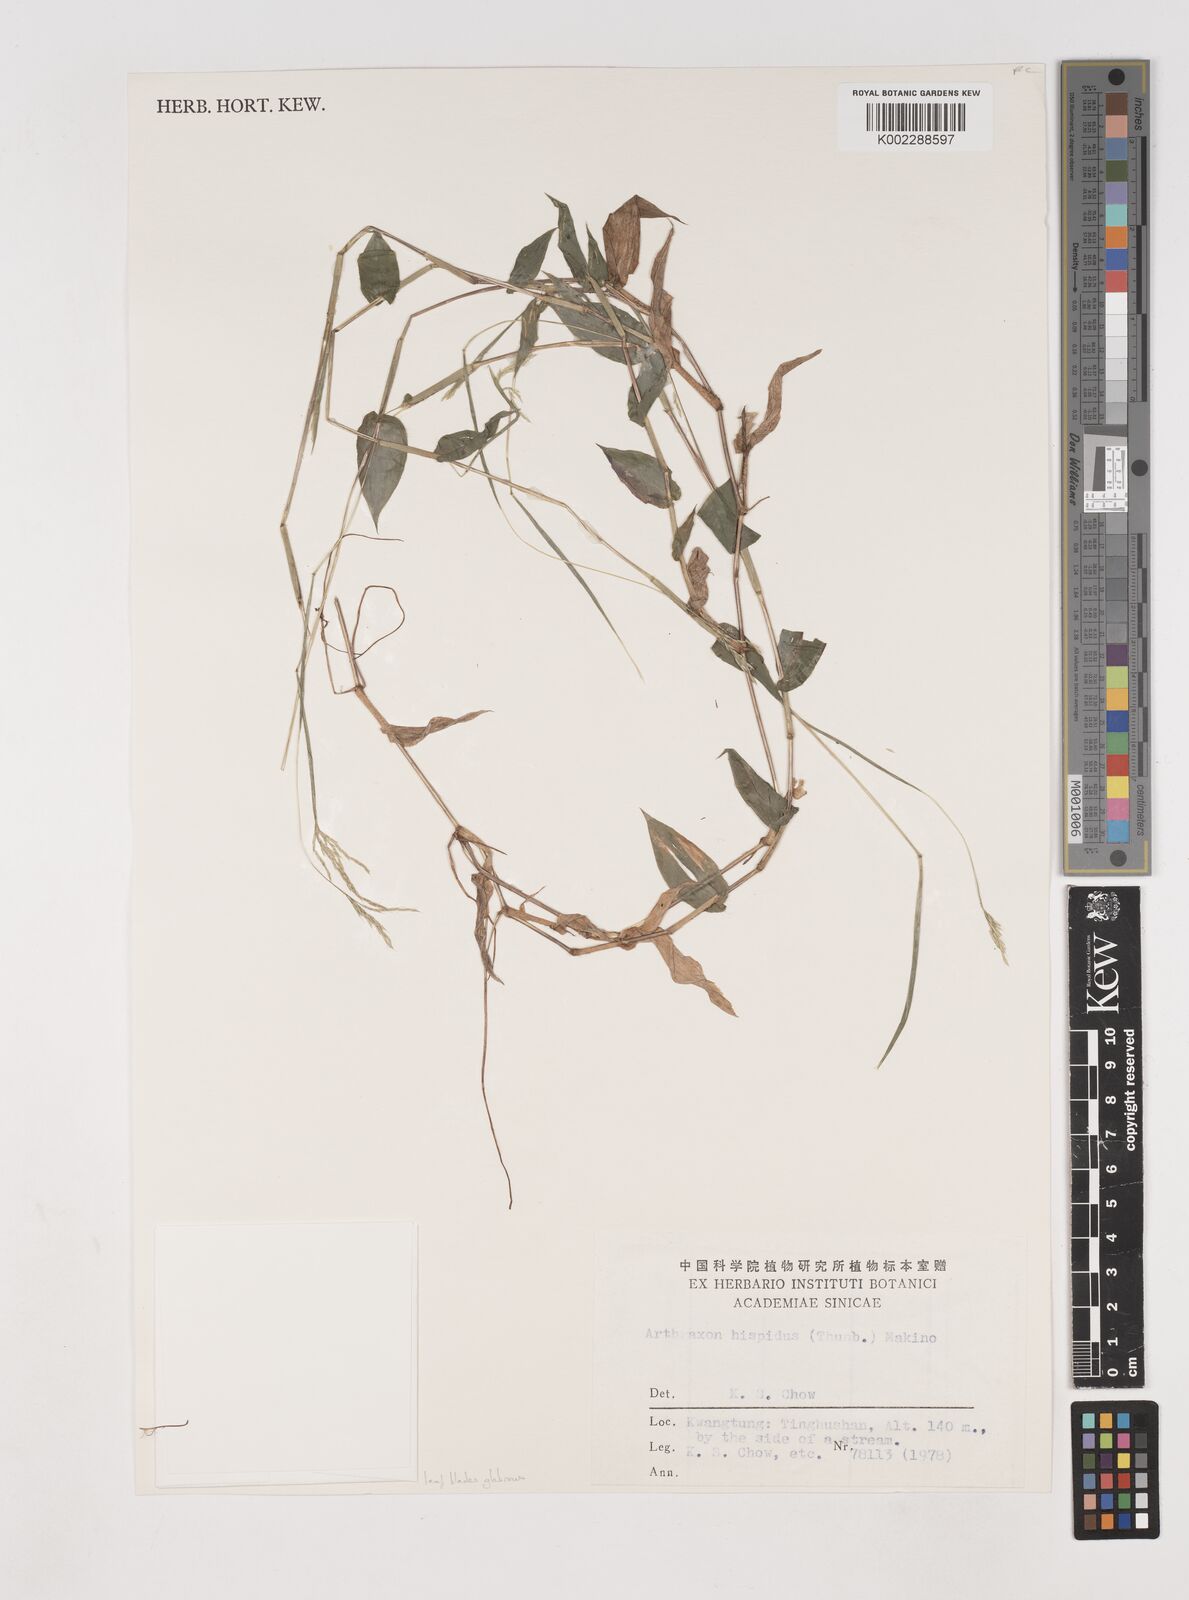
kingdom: Plantae
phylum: Tracheophyta
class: Liliopsida
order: Poales
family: Poaceae
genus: Arthraxon
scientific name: Arthraxon hispidus
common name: Small carpgrass
